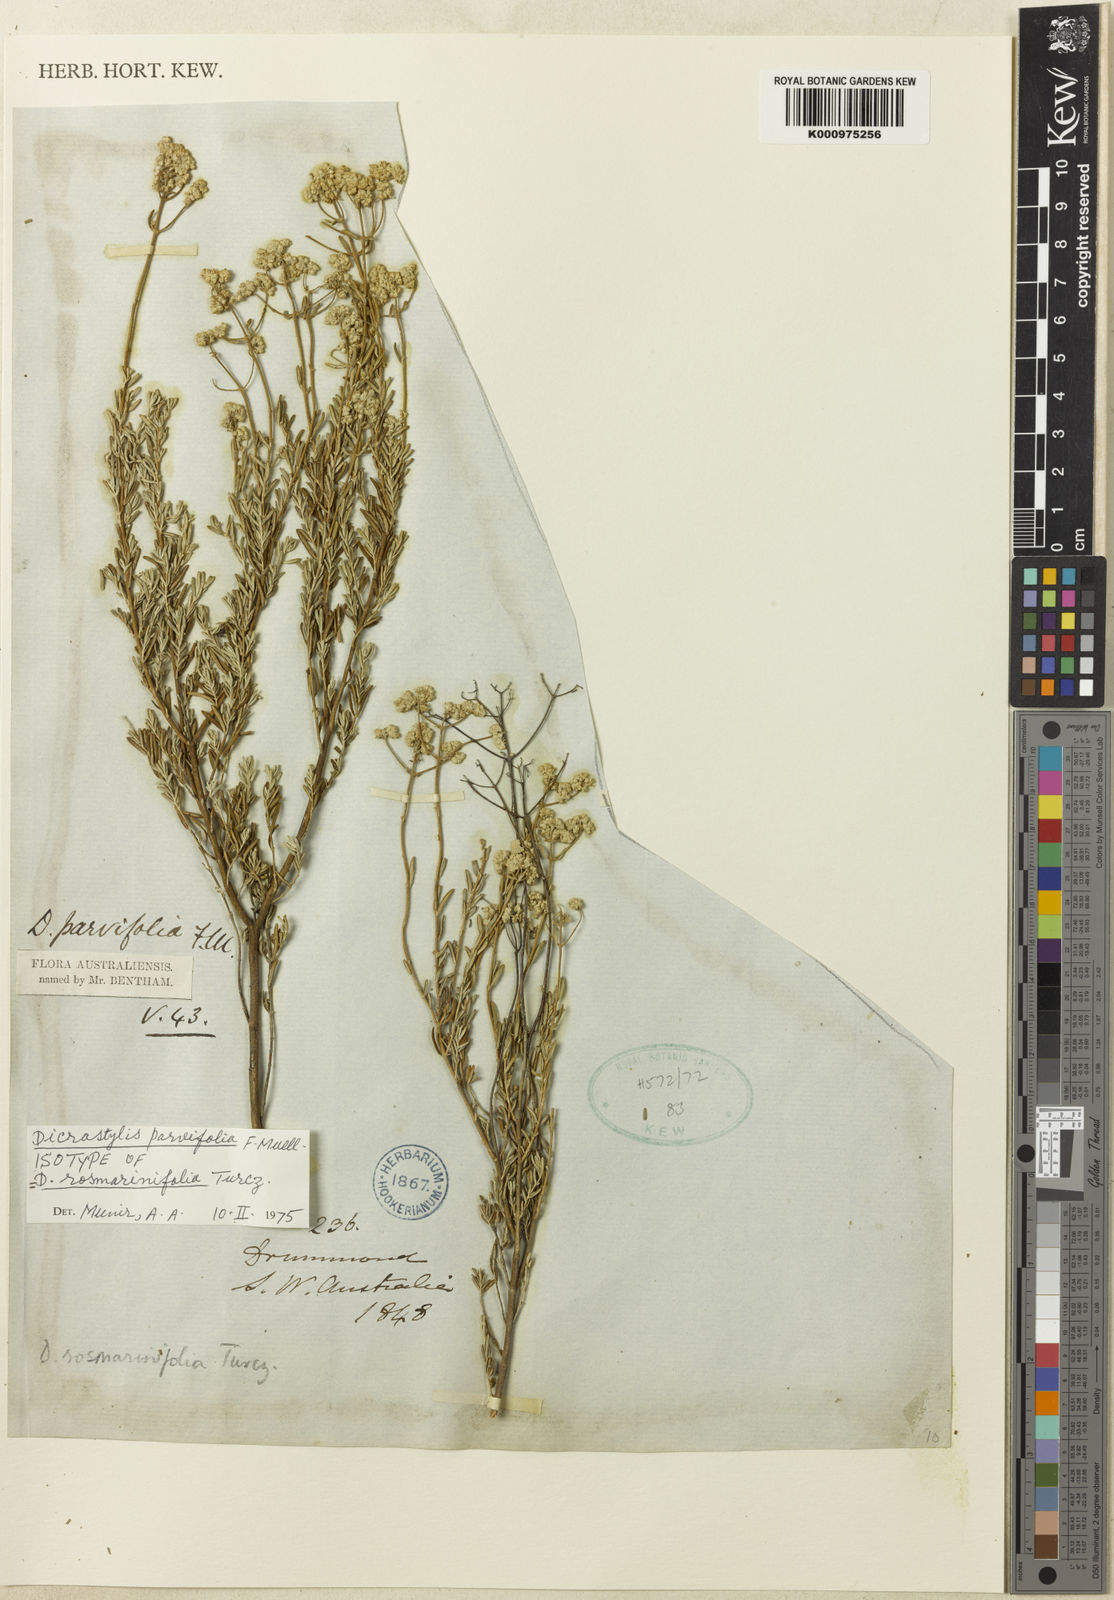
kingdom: Plantae
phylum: Tracheophyta
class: Magnoliopsida
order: Lamiales
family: Lamiaceae
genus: Dicrastylis
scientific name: Dicrastylis parvifolia
